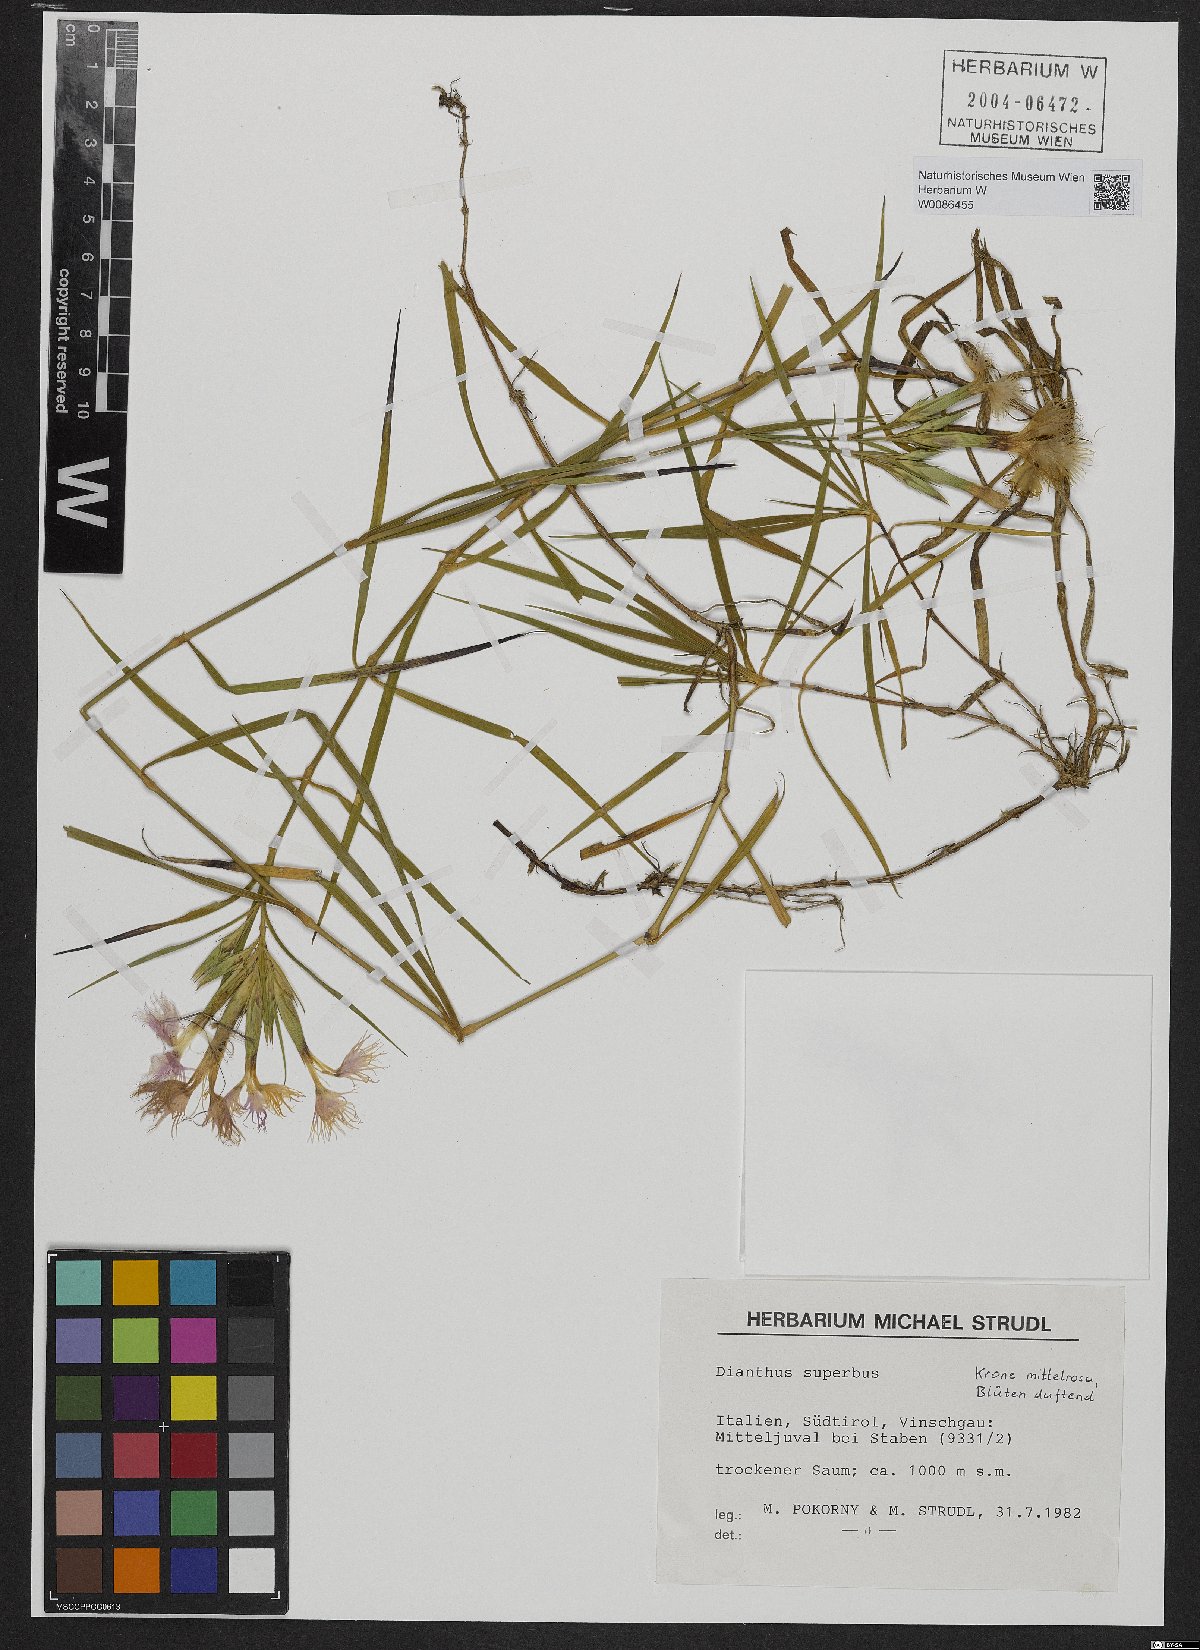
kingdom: Plantae
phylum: Tracheophyta
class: Magnoliopsida
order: Caryophyllales
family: Caryophyllaceae
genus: Dianthus
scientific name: Dianthus superbus
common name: Fringed pink
